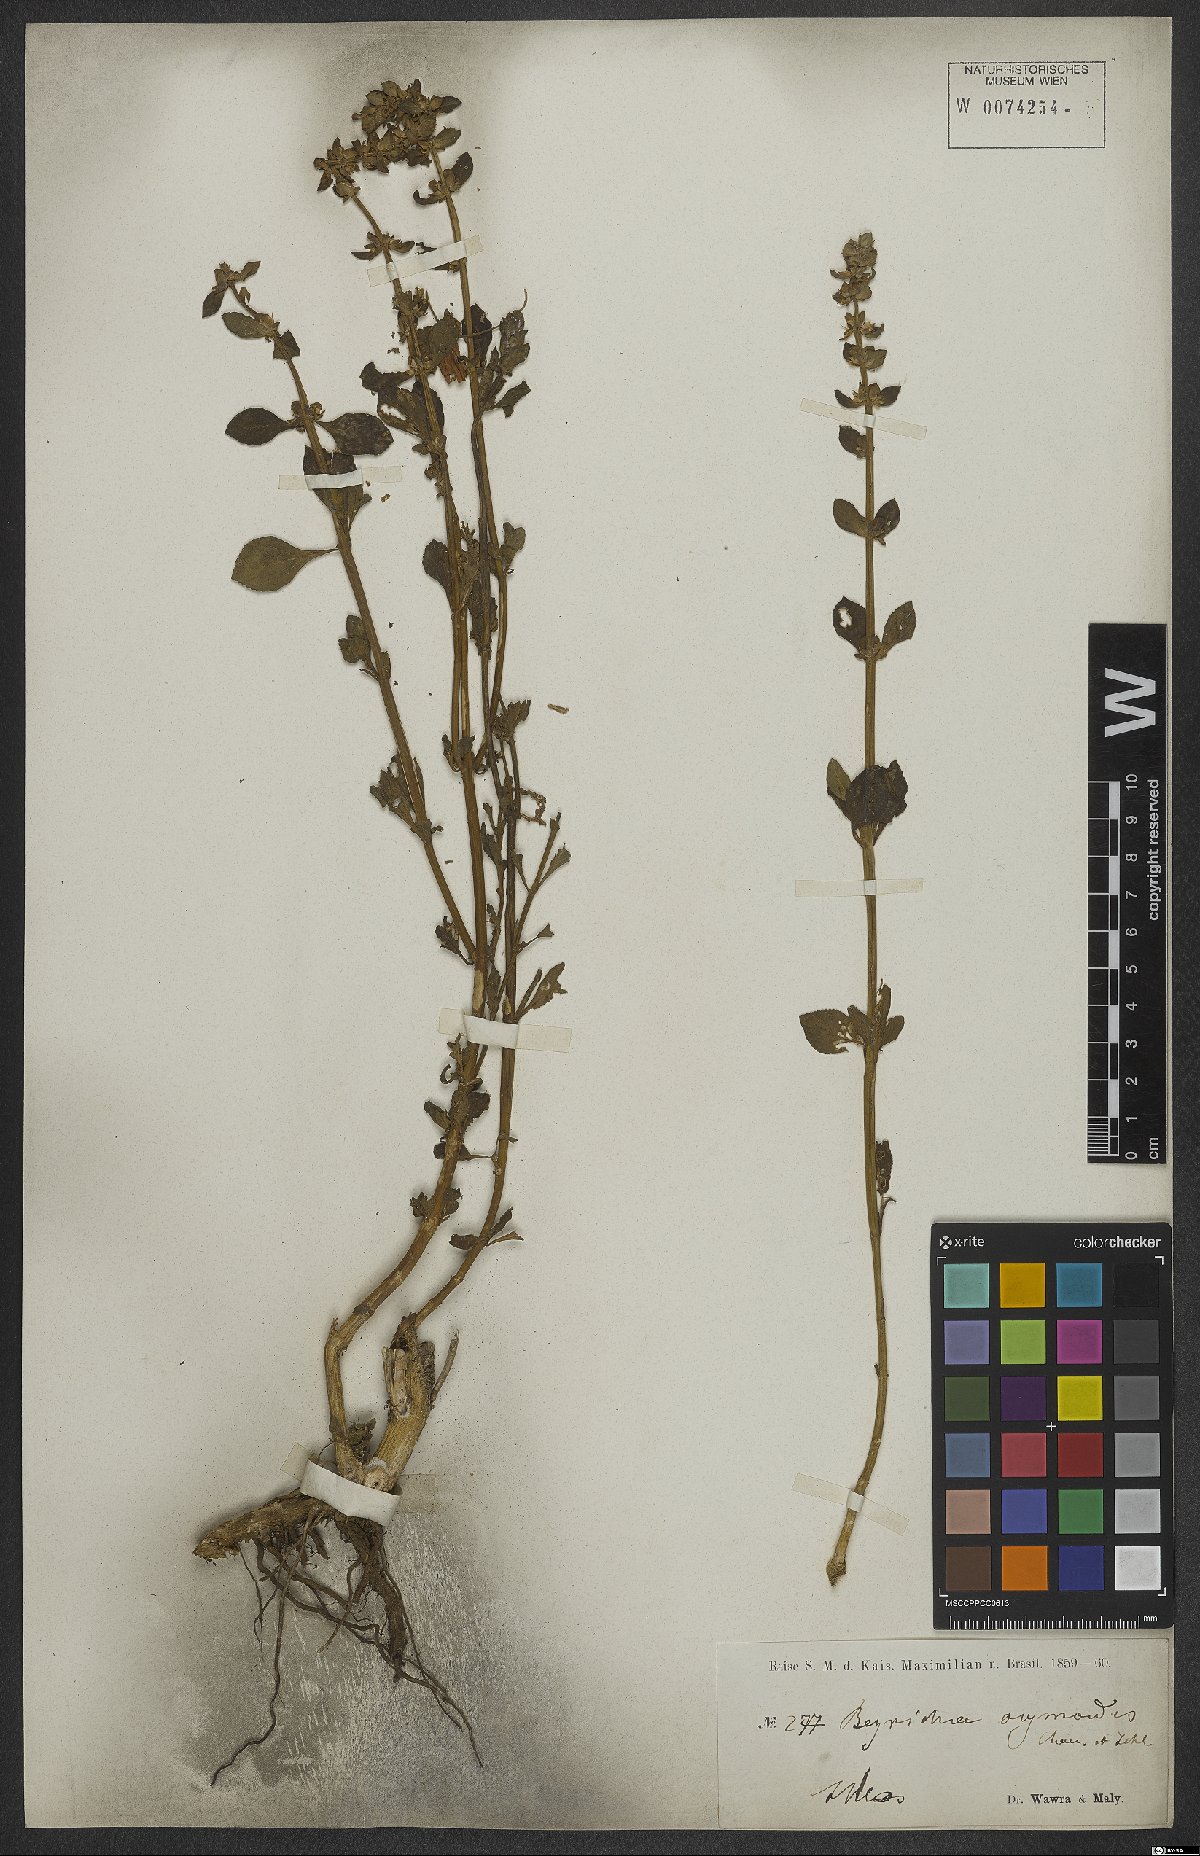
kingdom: Plantae
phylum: Tracheophyta
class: Magnoliopsida
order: Lamiales
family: Plantaginaceae
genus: Matourea
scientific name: Matourea ocymoides
